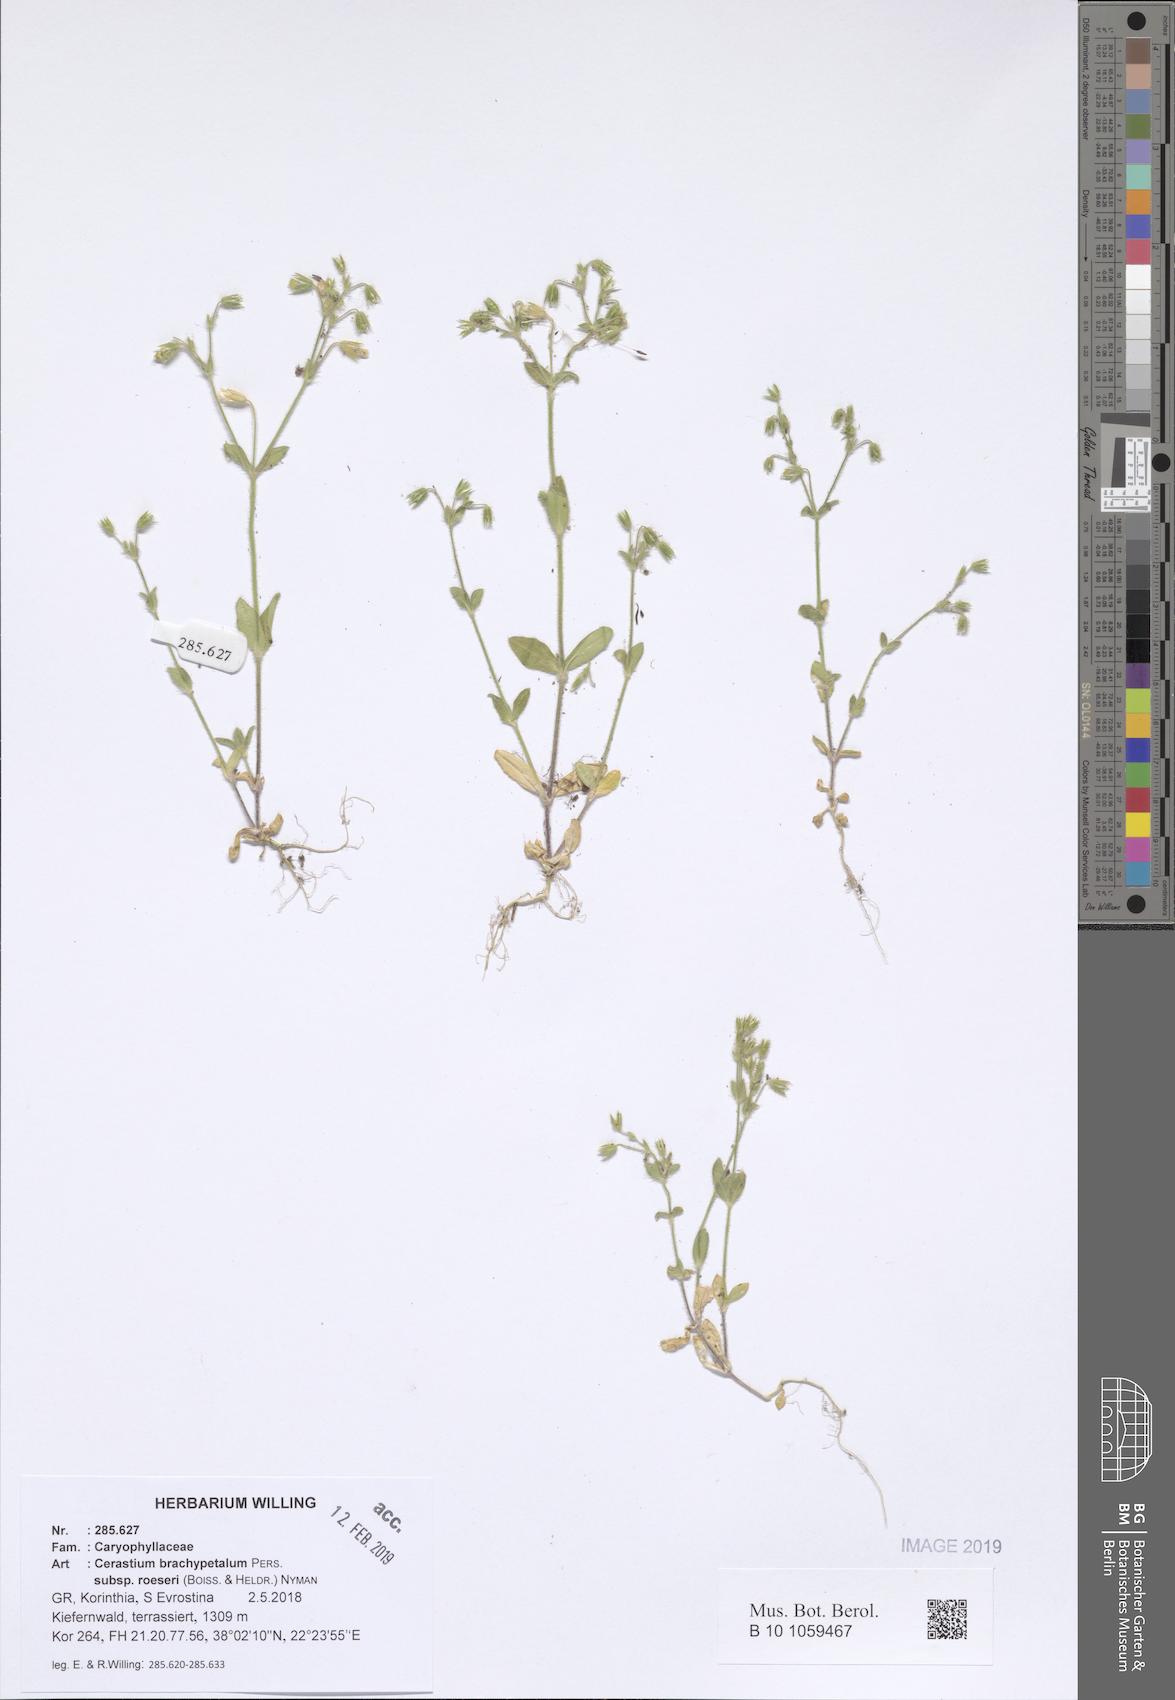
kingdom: Plantae
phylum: Tracheophyta
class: Magnoliopsida
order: Caryophyllales
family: Caryophyllaceae
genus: Cerastium
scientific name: Cerastium brachypetalum
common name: Grey mouse-ear
